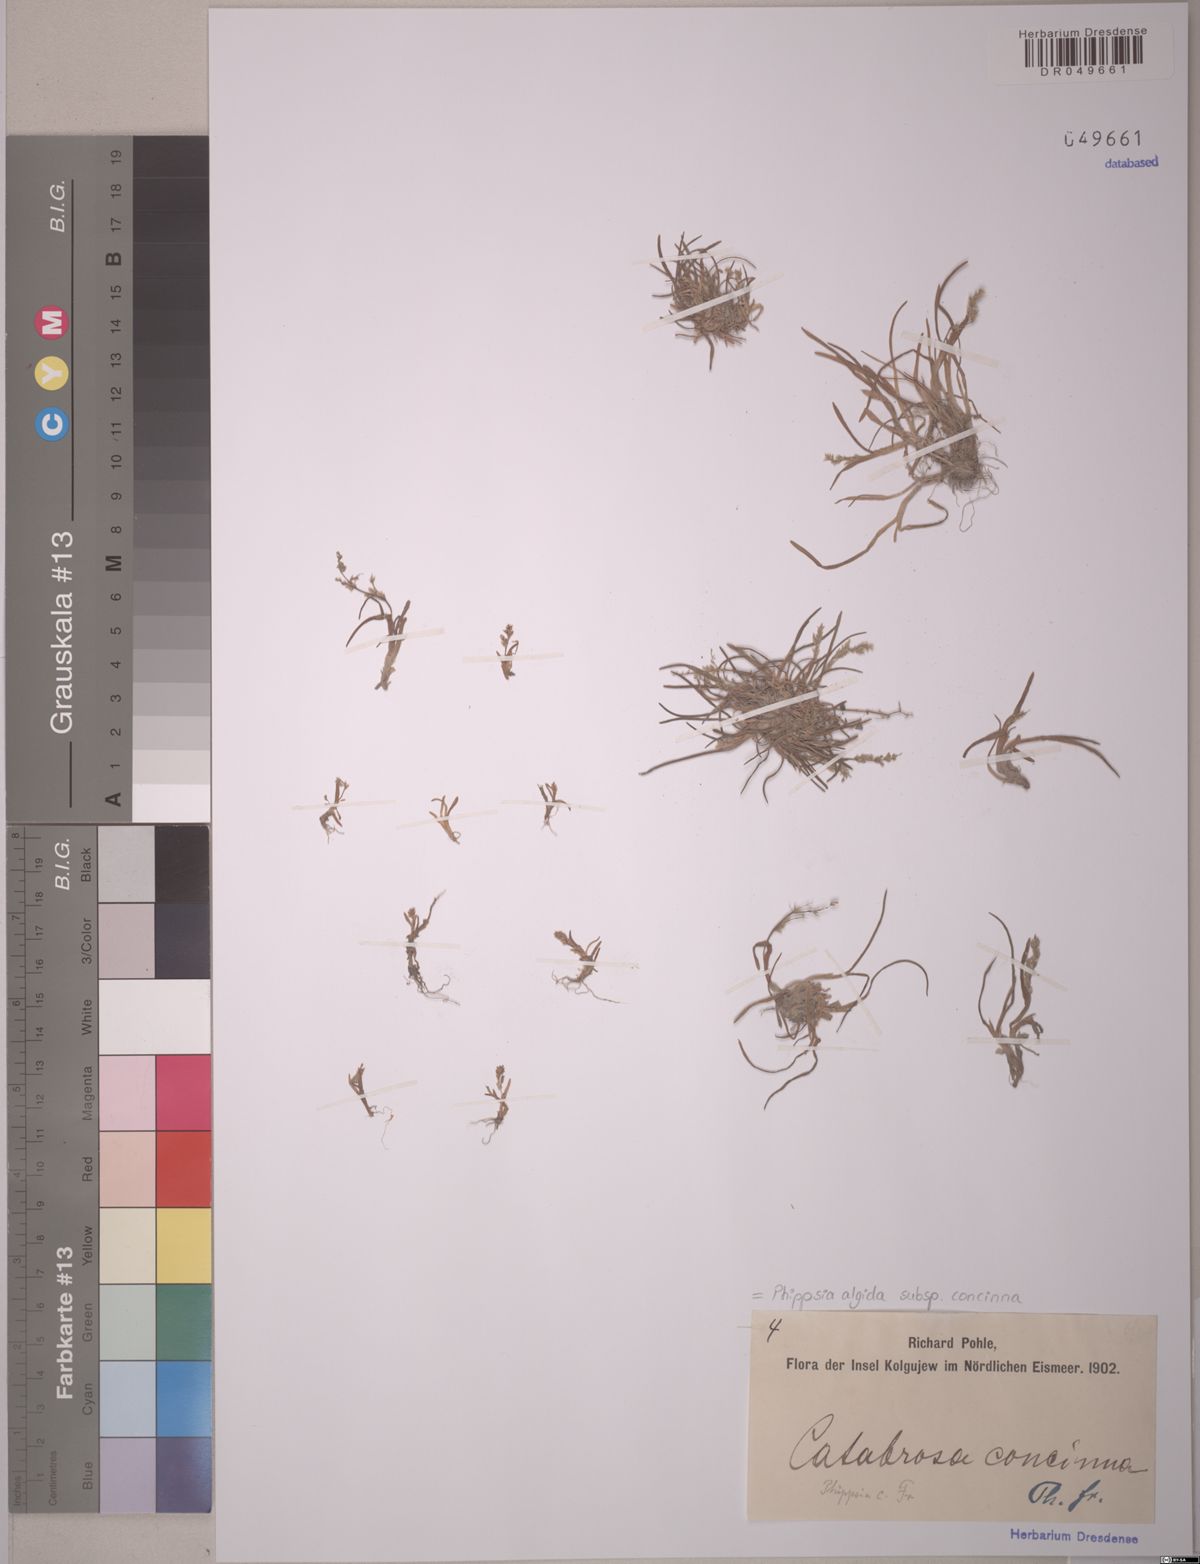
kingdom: Plantae
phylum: Tracheophyta
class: Liliopsida
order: Poales
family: Poaceae
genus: Phippsia
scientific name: Phippsia concinna
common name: Snowgrass
